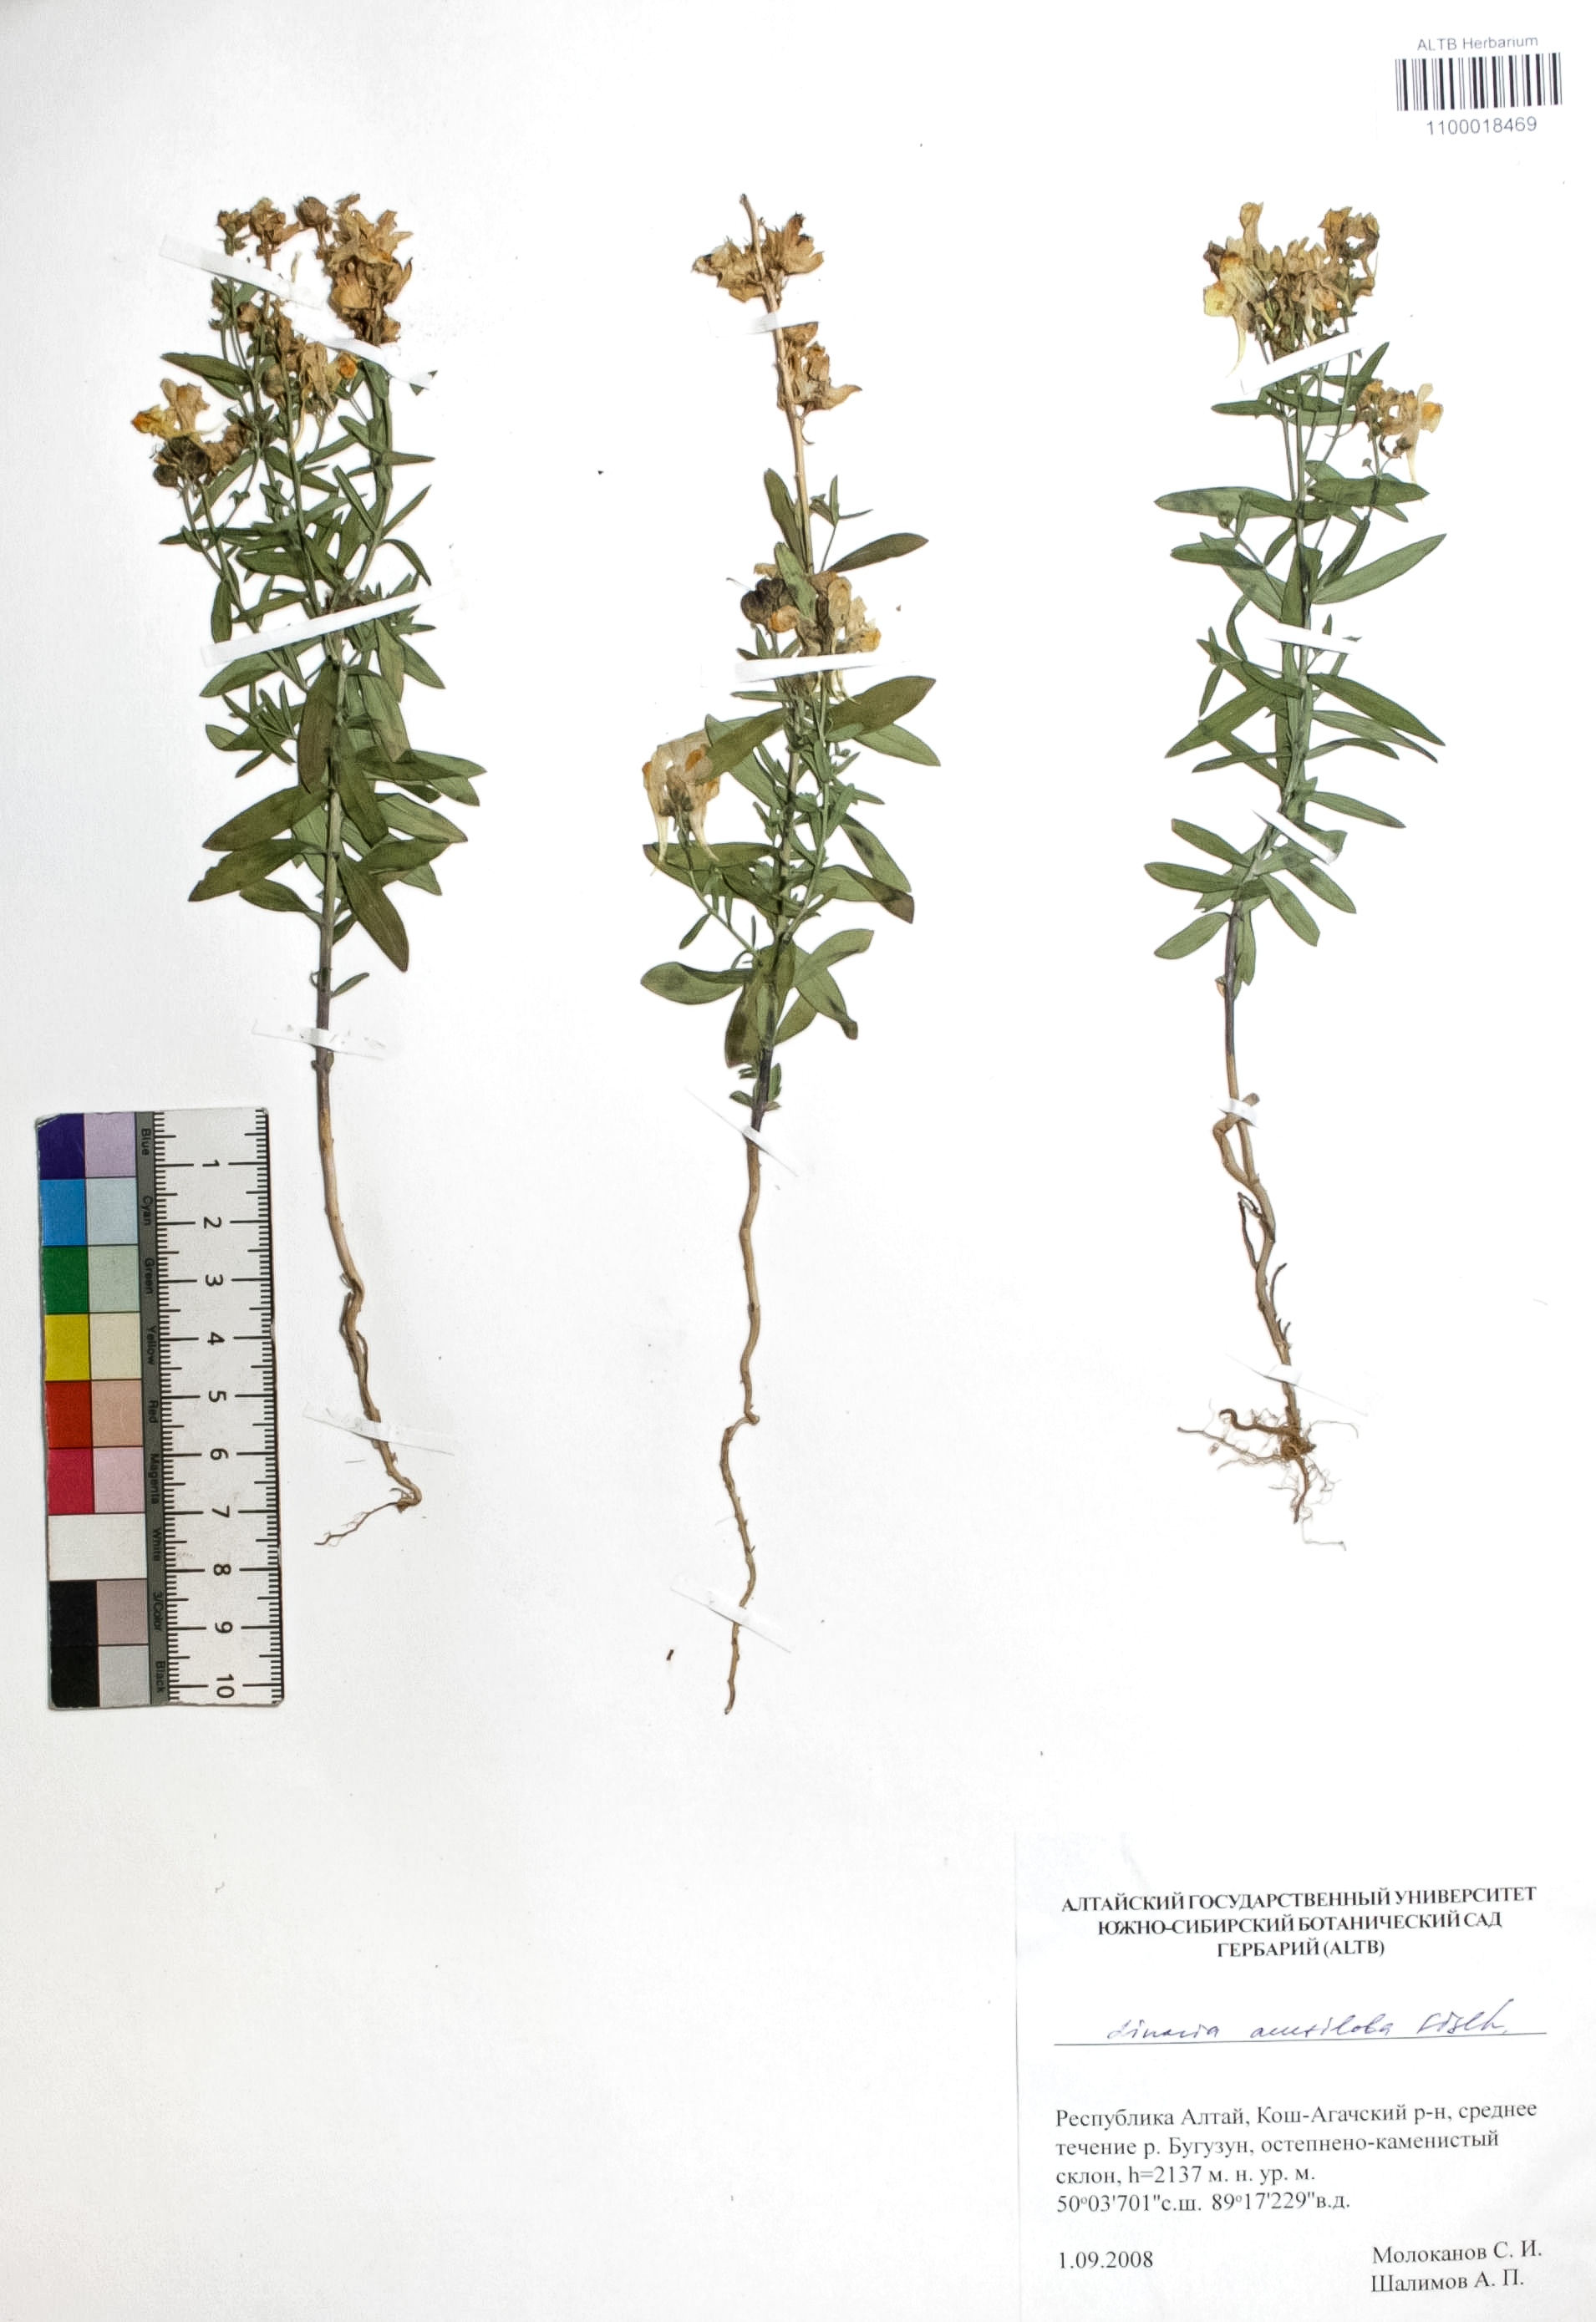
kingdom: Plantae
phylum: Tracheophyta
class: Magnoliopsida
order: Lamiales
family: Plantaginaceae
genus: Linaria
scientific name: Linaria acutiloba
